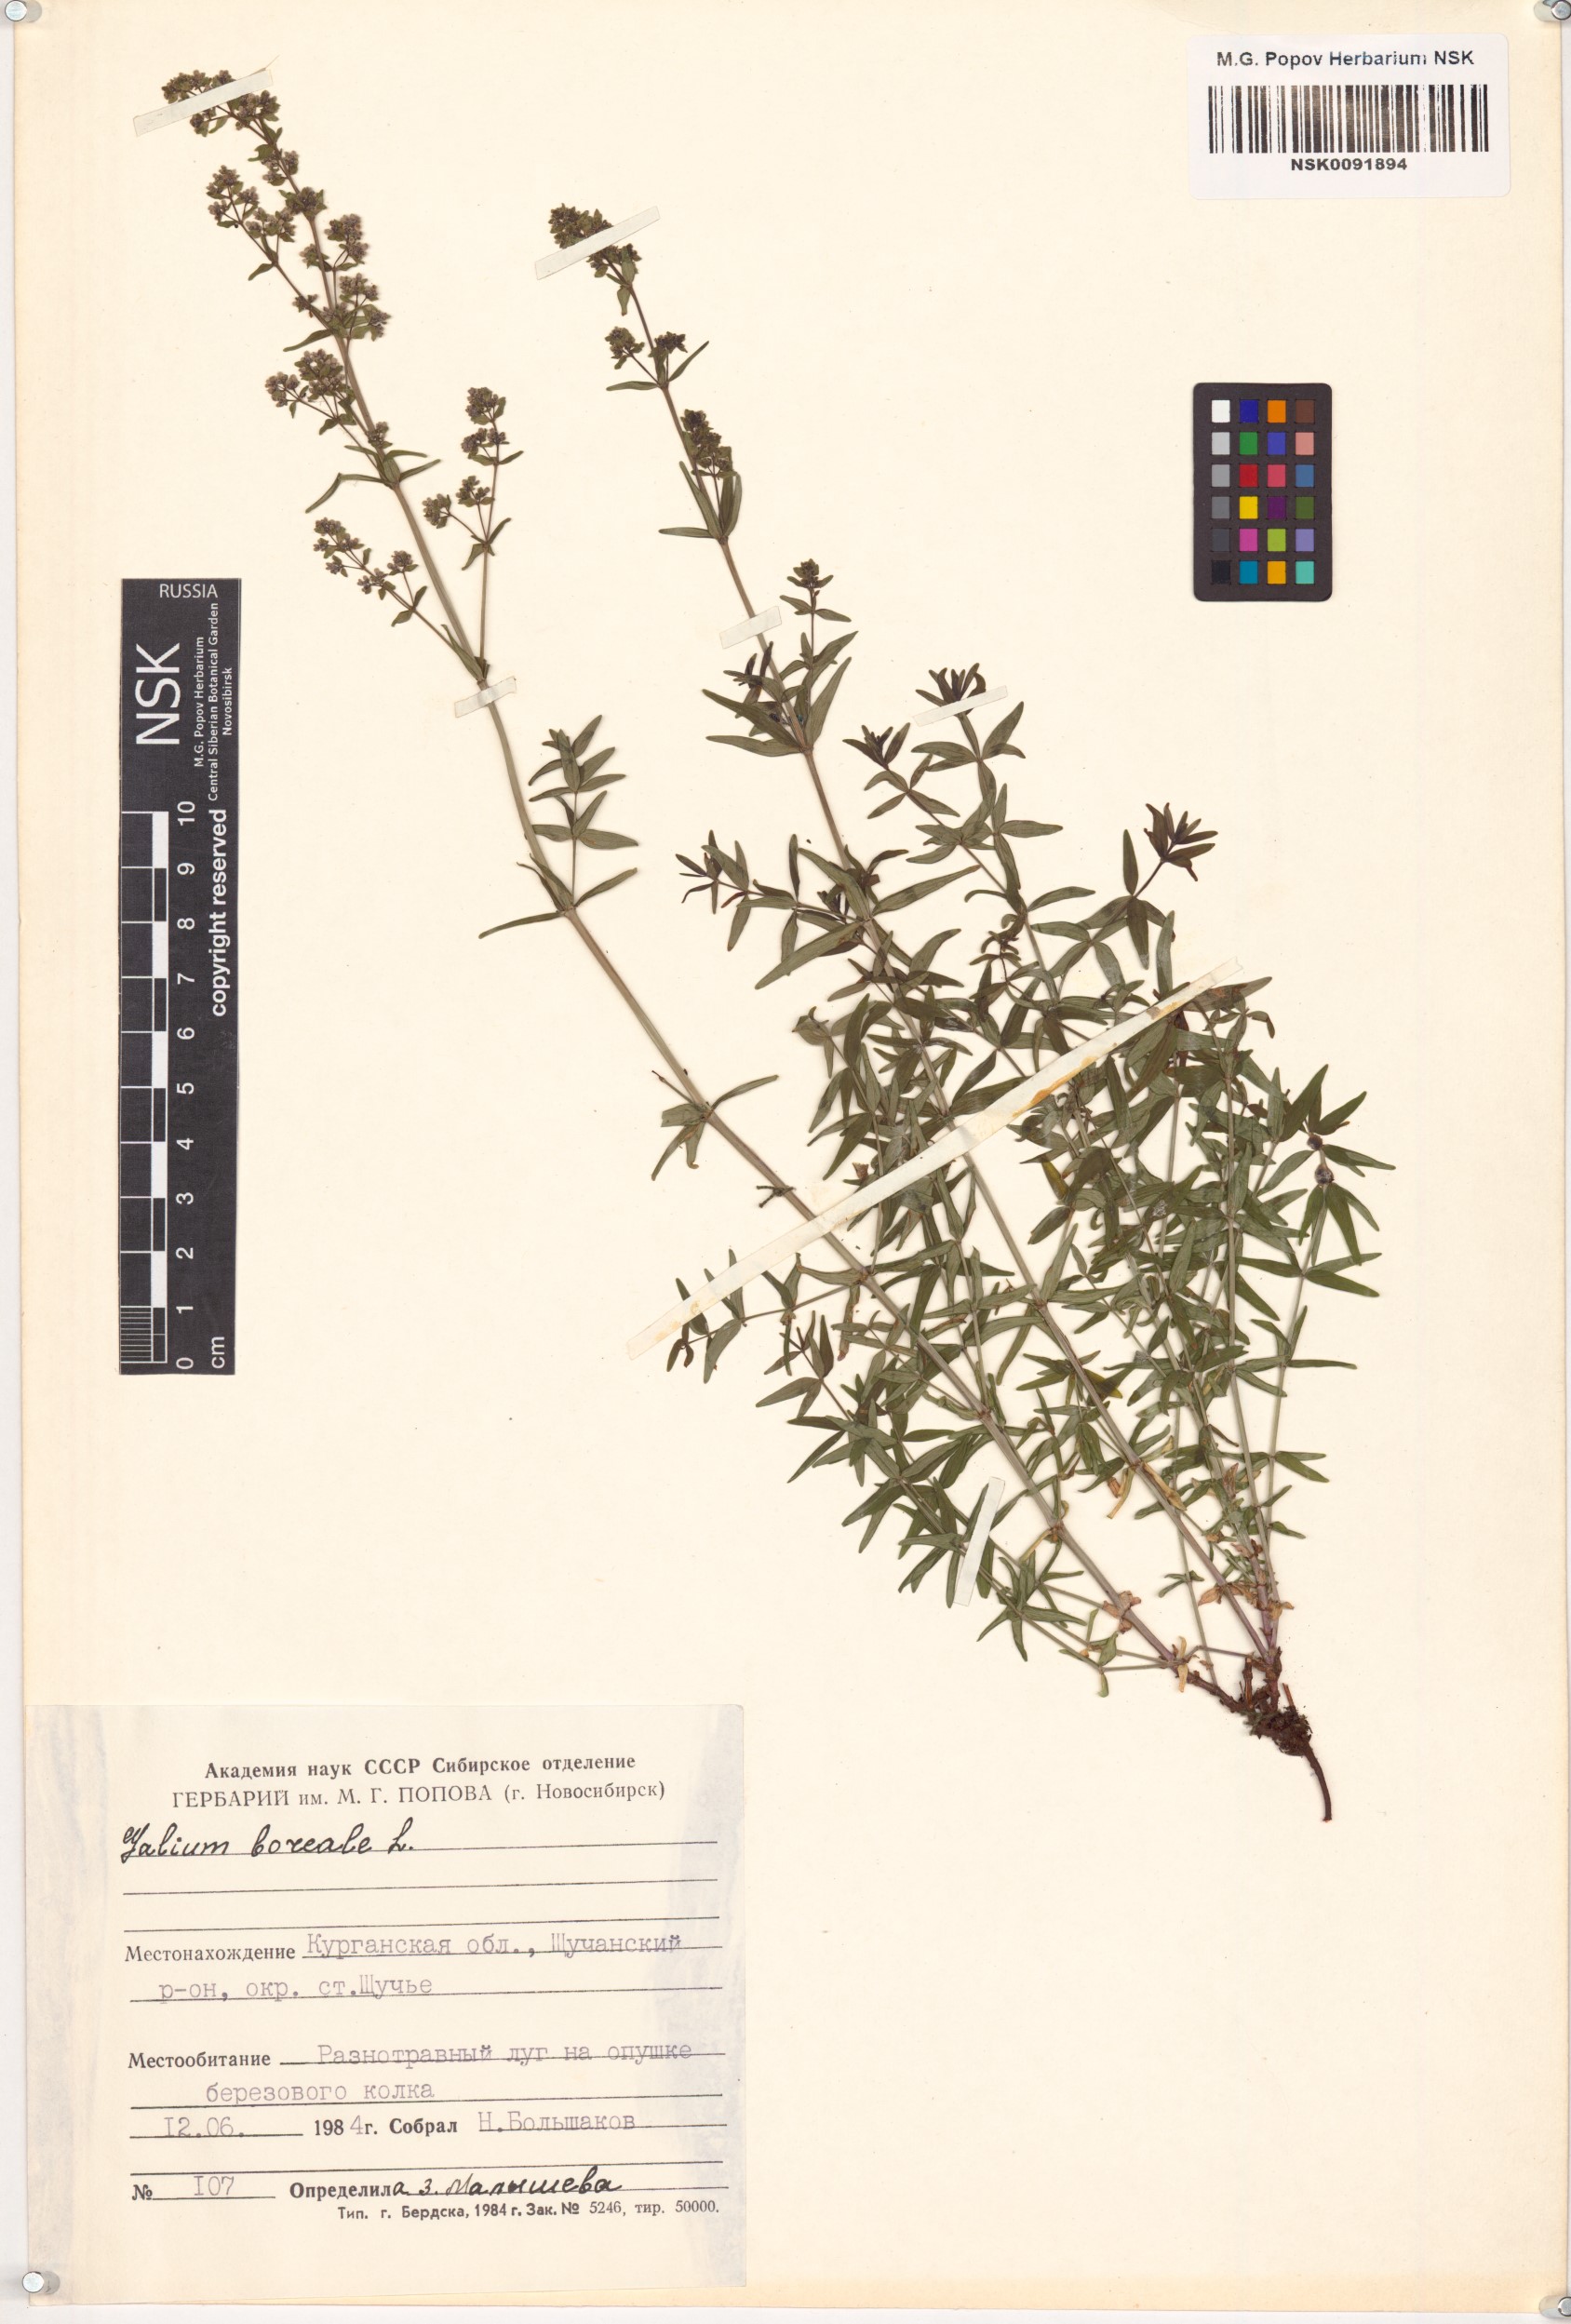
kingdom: Plantae
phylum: Tracheophyta
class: Magnoliopsida
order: Gentianales
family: Rubiaceae
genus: Galium
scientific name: Galium boreale
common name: Northern bedstraw
